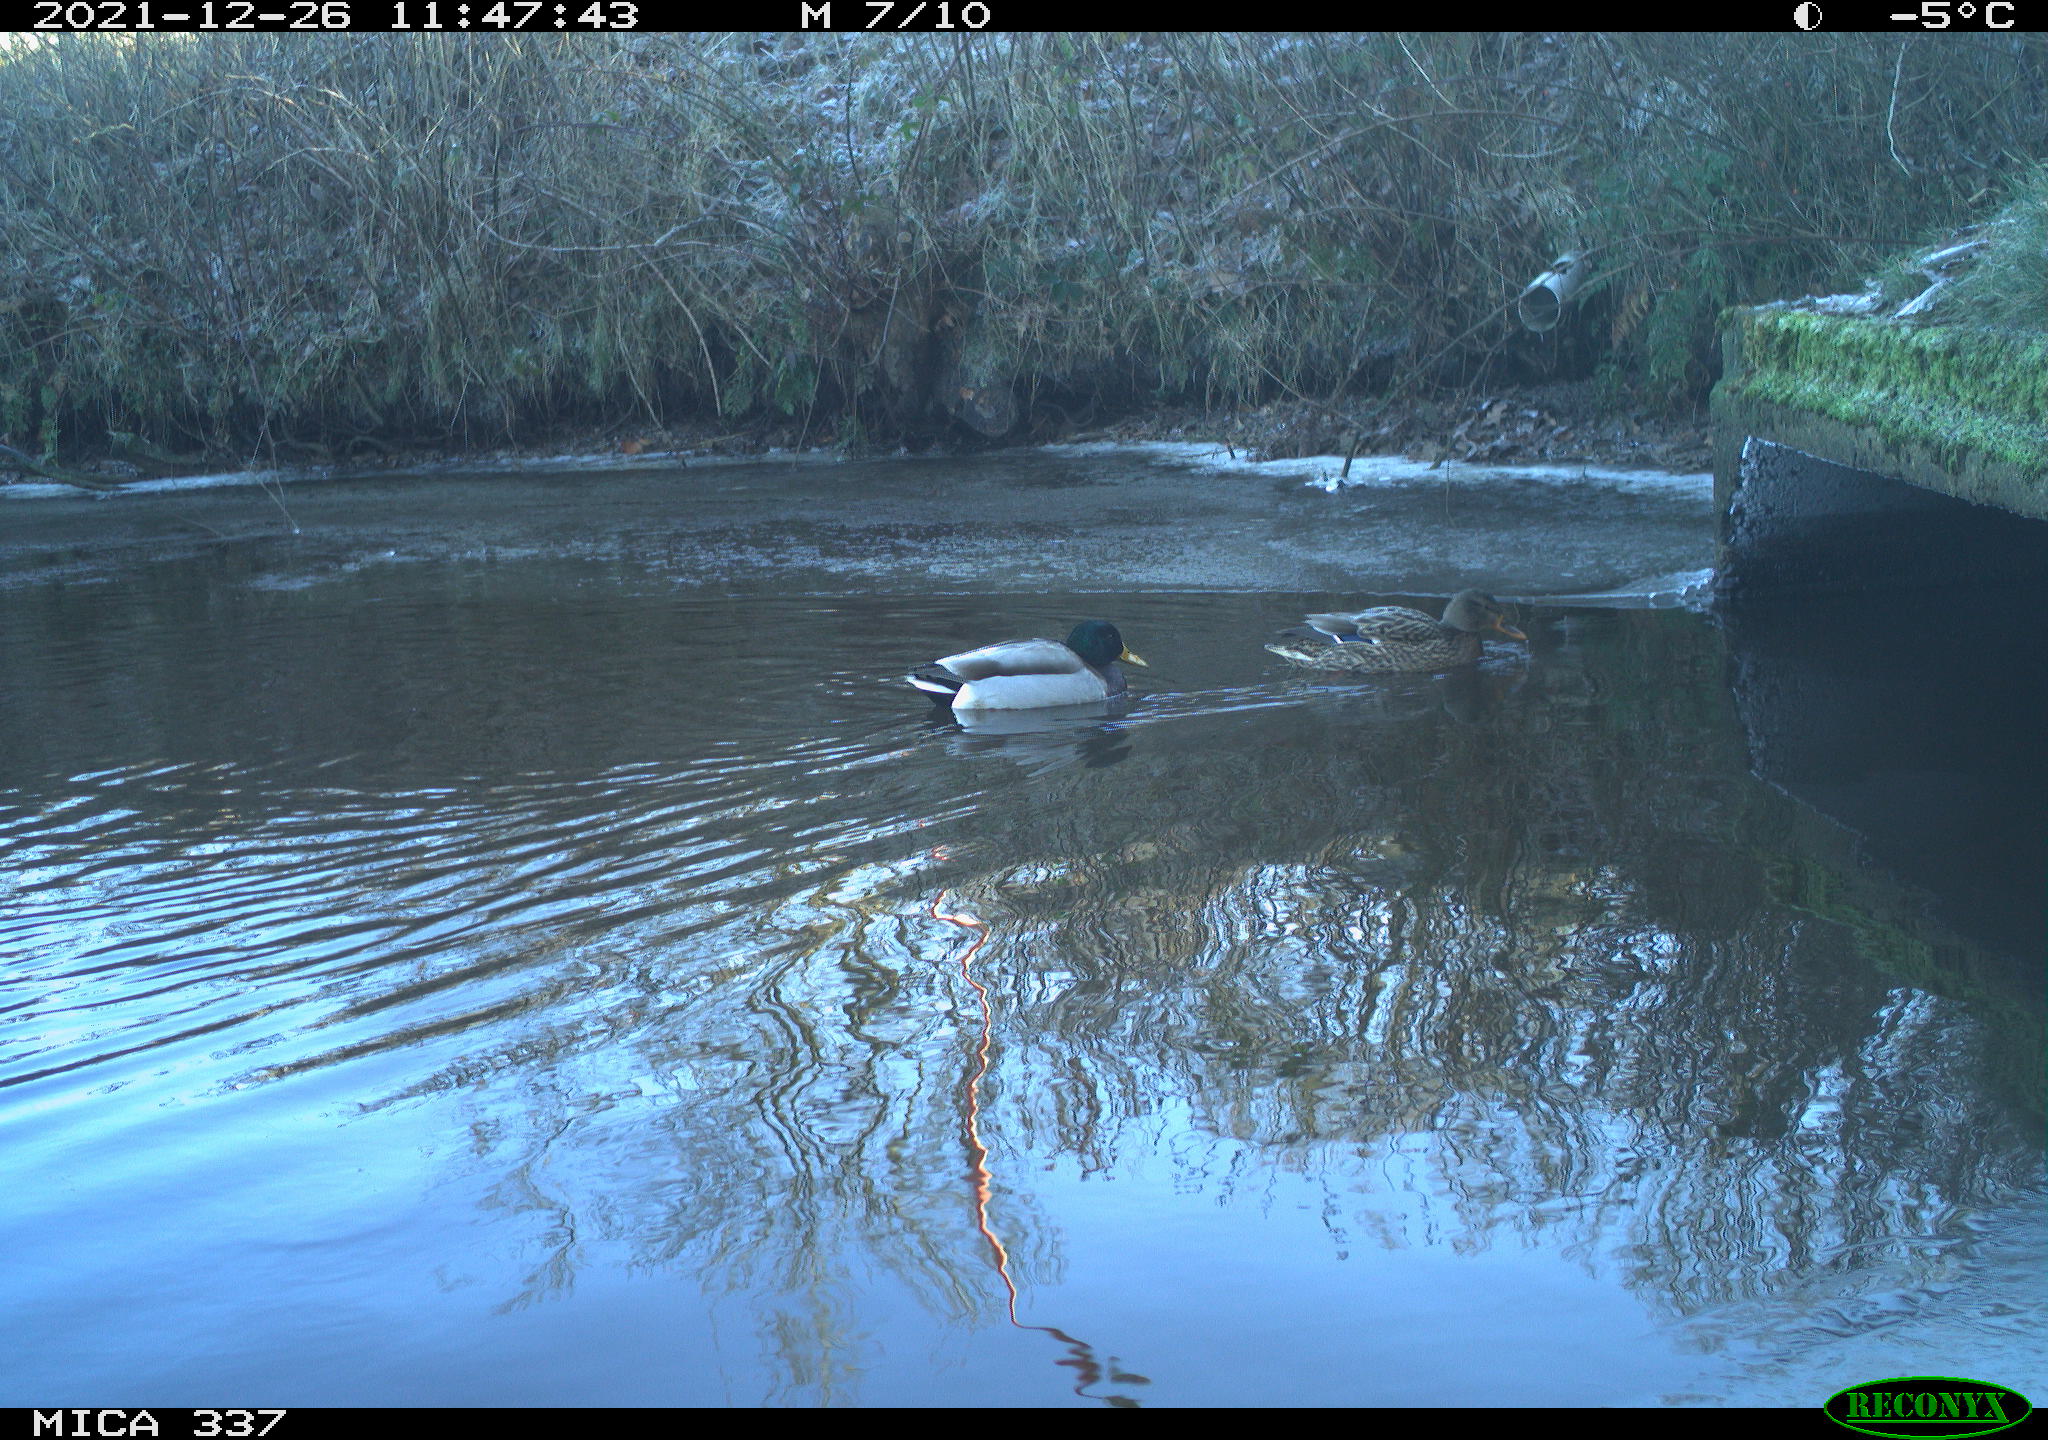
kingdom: Animalia
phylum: Chordata
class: Aves
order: Anseriformes
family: Anatidae
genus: Anas
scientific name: Anas platyrhynchos
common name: Mallard
